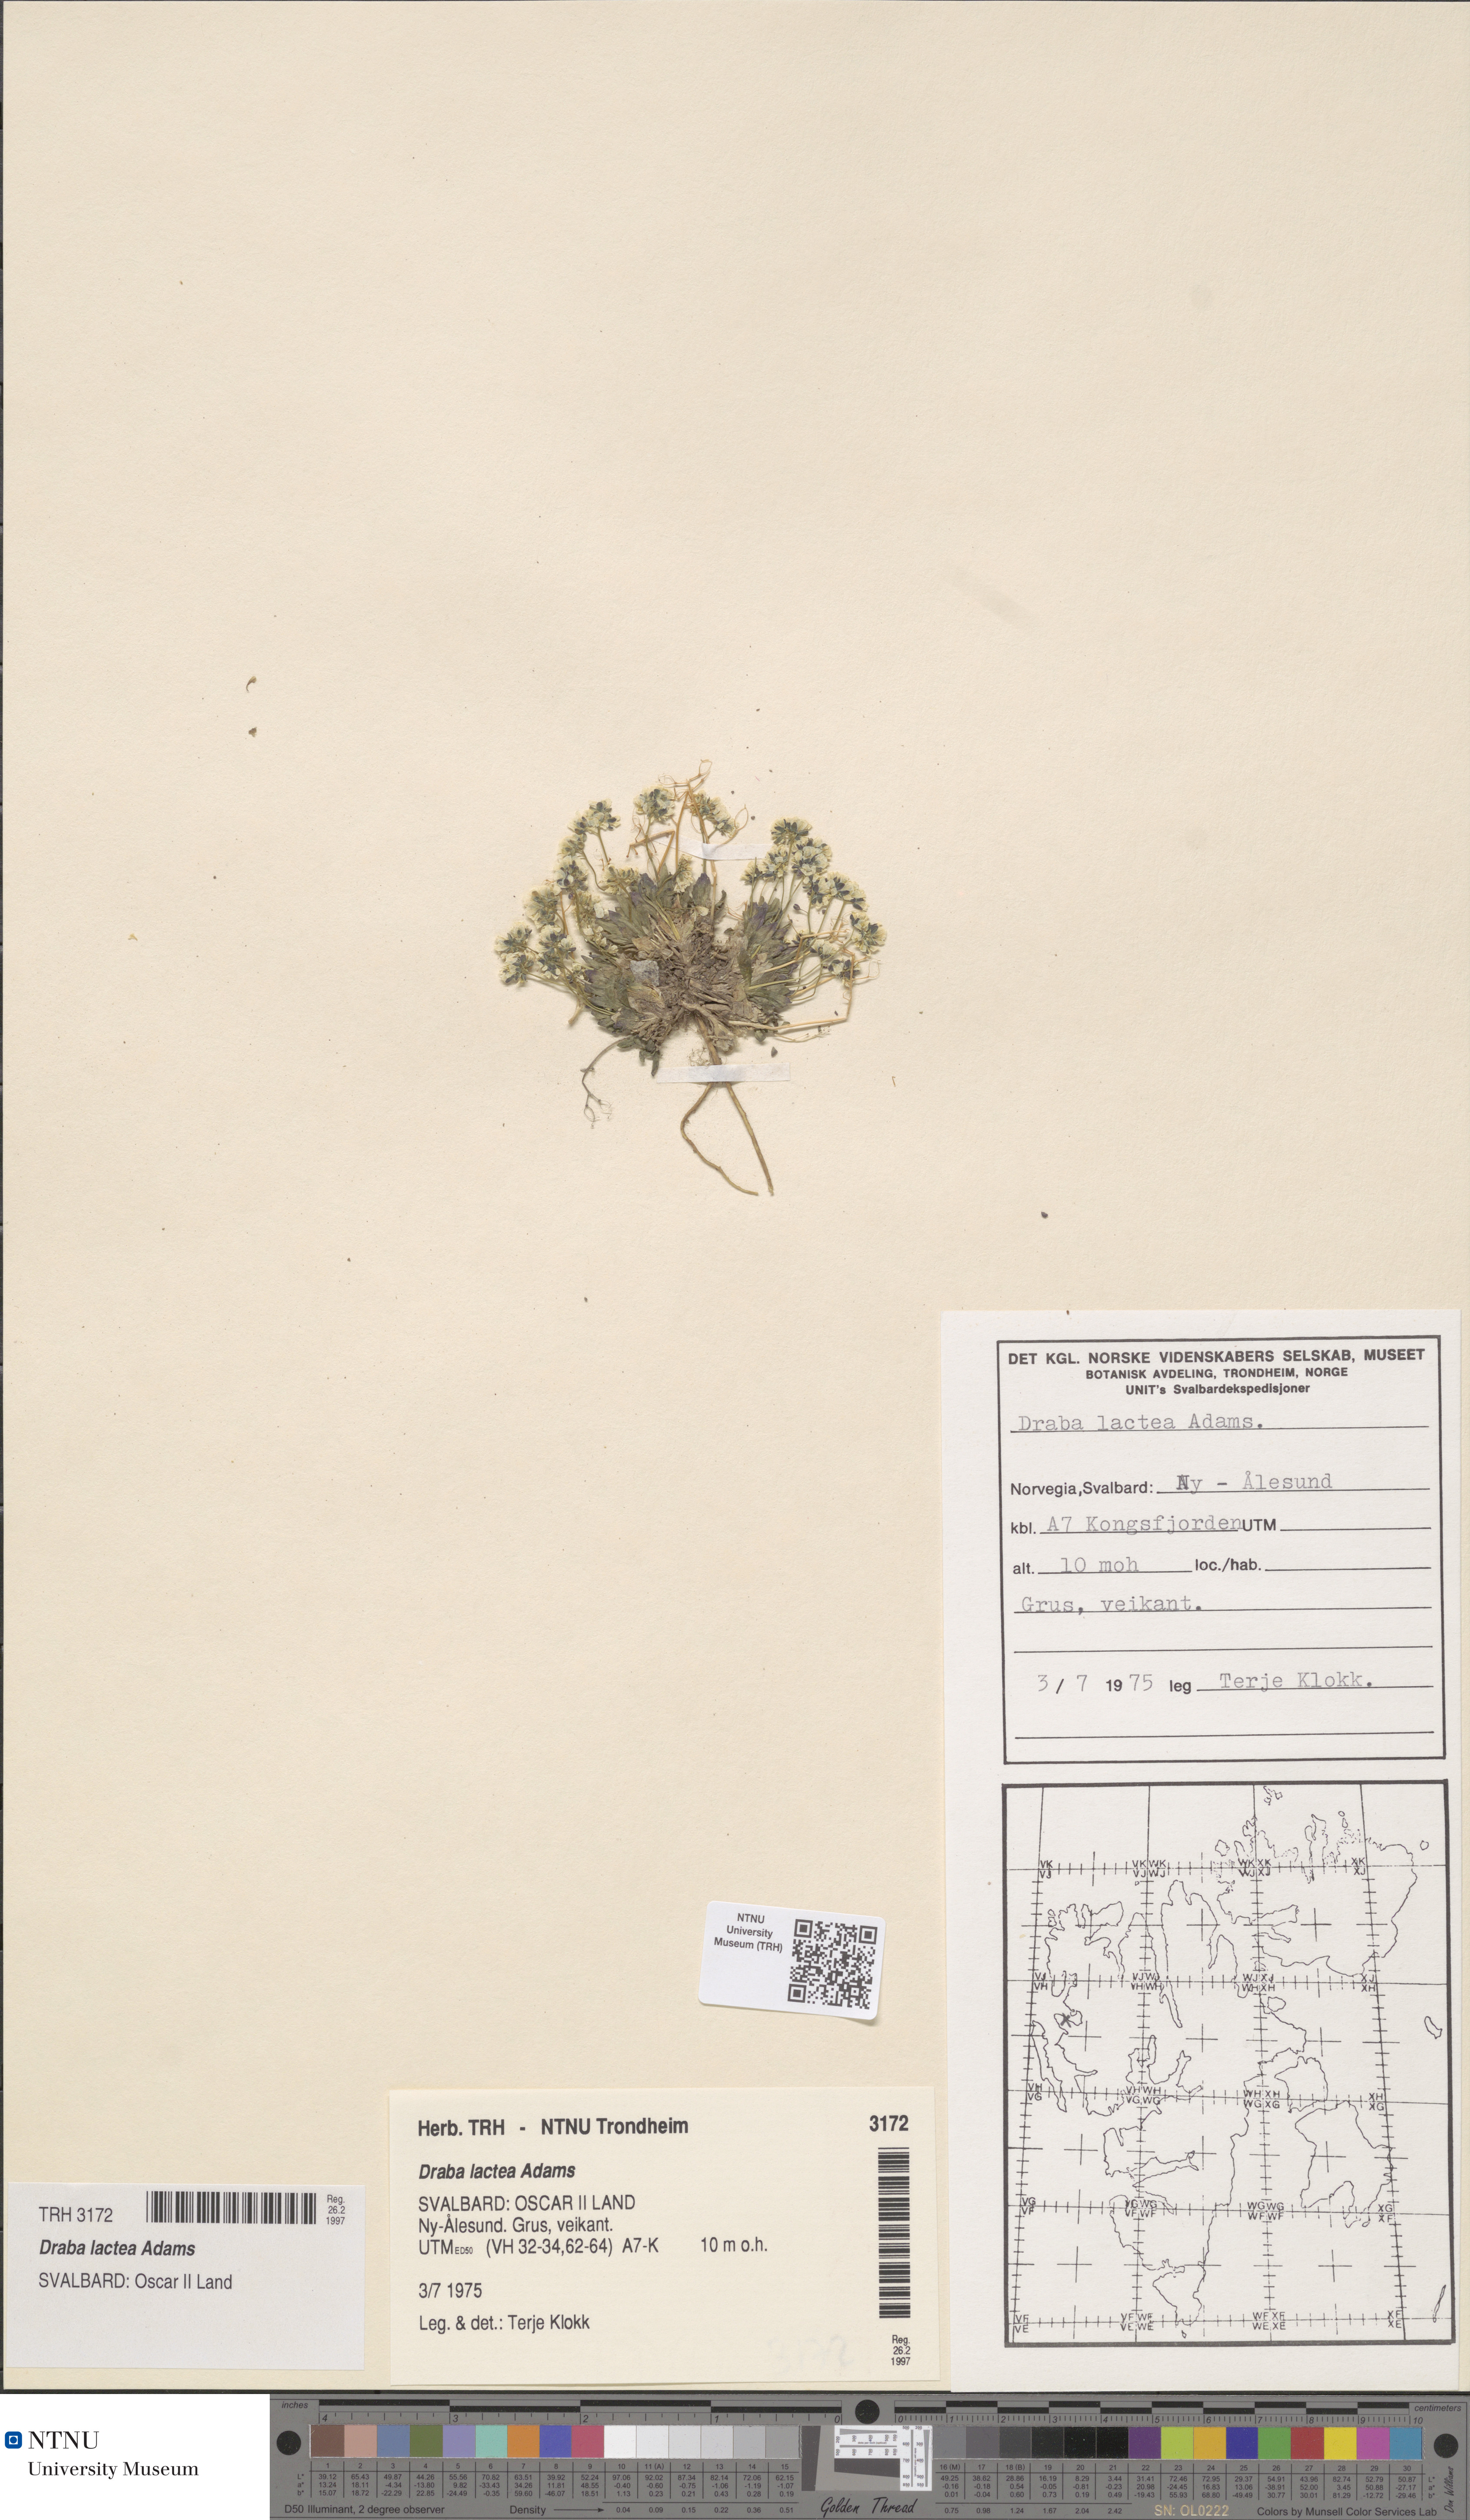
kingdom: Plantae
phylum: Tracheophyta
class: Magnoliopsida
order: Brassicales
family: Brassicaceae
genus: Draba
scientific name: Draba lactea
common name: Milky draba
